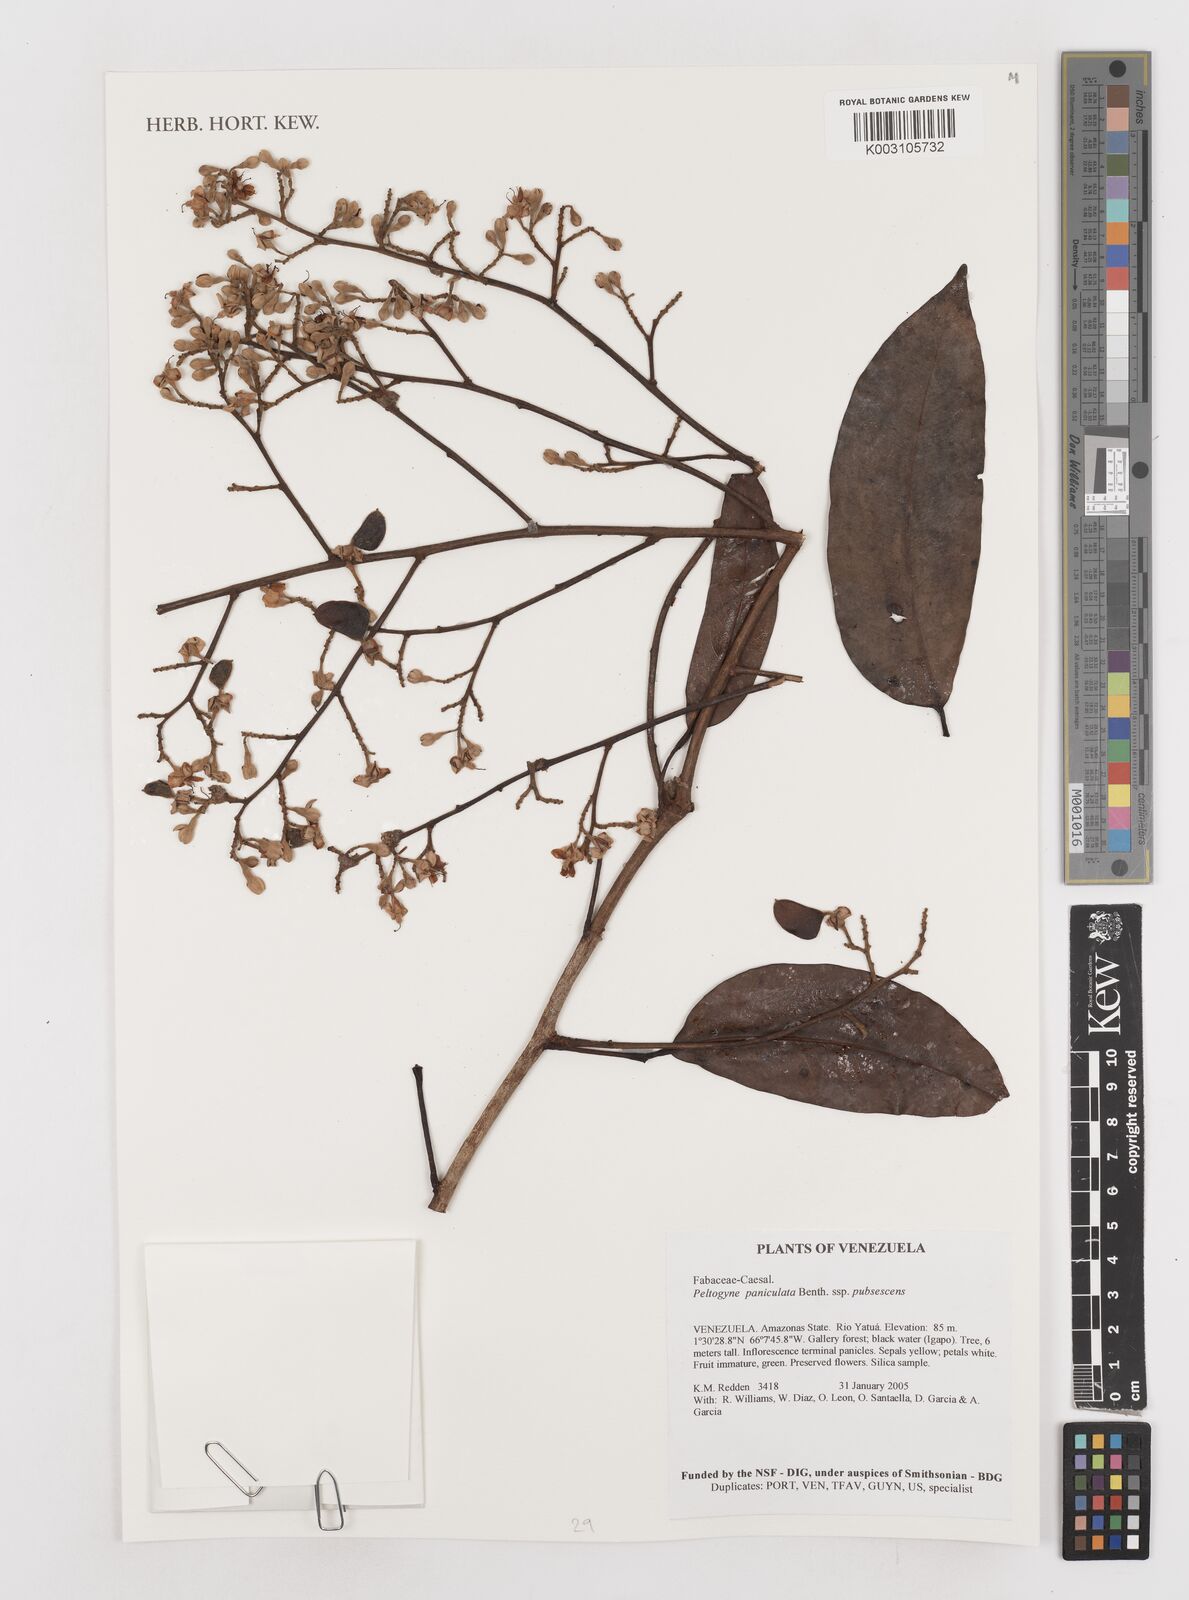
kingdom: Plantae
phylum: Tracheophyta
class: Magnoliopsida
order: Fabales
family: Fabaceae
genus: Peltogyne
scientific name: Peltogyne paniculata
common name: Purpleheart
